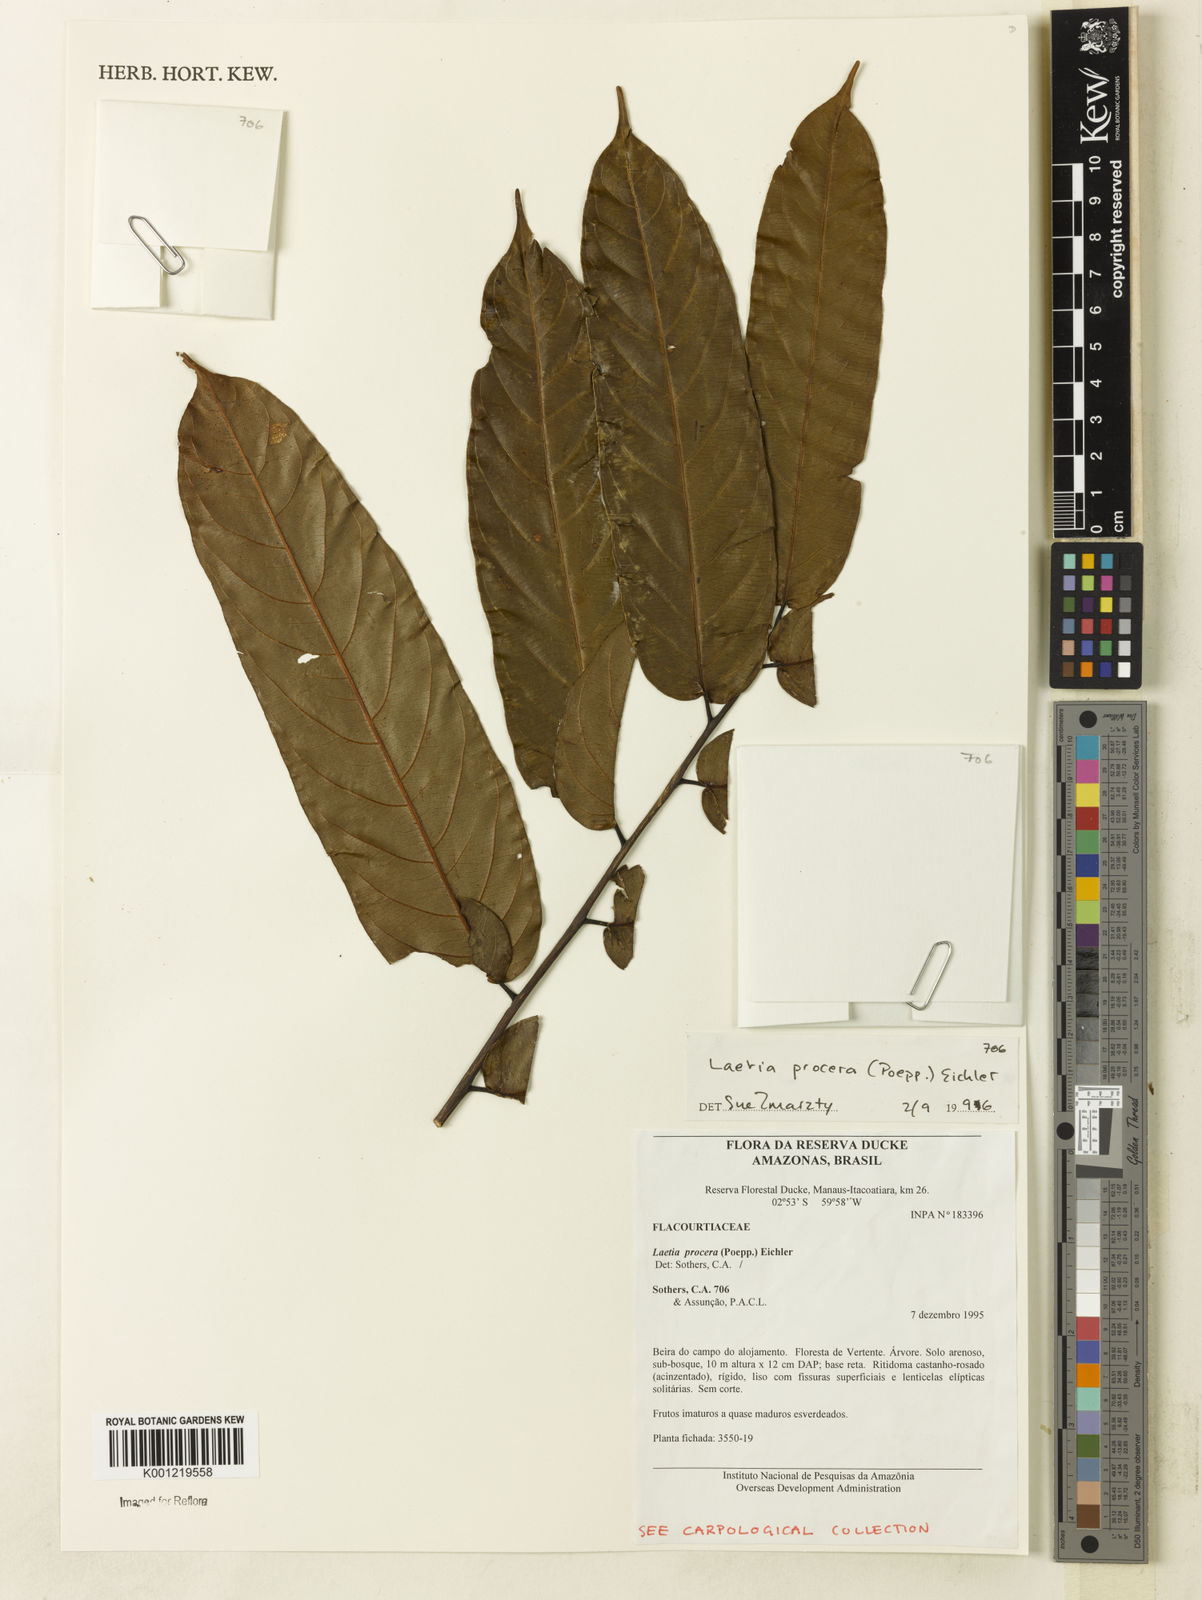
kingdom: Plantae
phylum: Tracheophyta
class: Magnoliopsida
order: Malpighiales
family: Salicaceae
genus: Casearia
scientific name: Casearia bicolor
